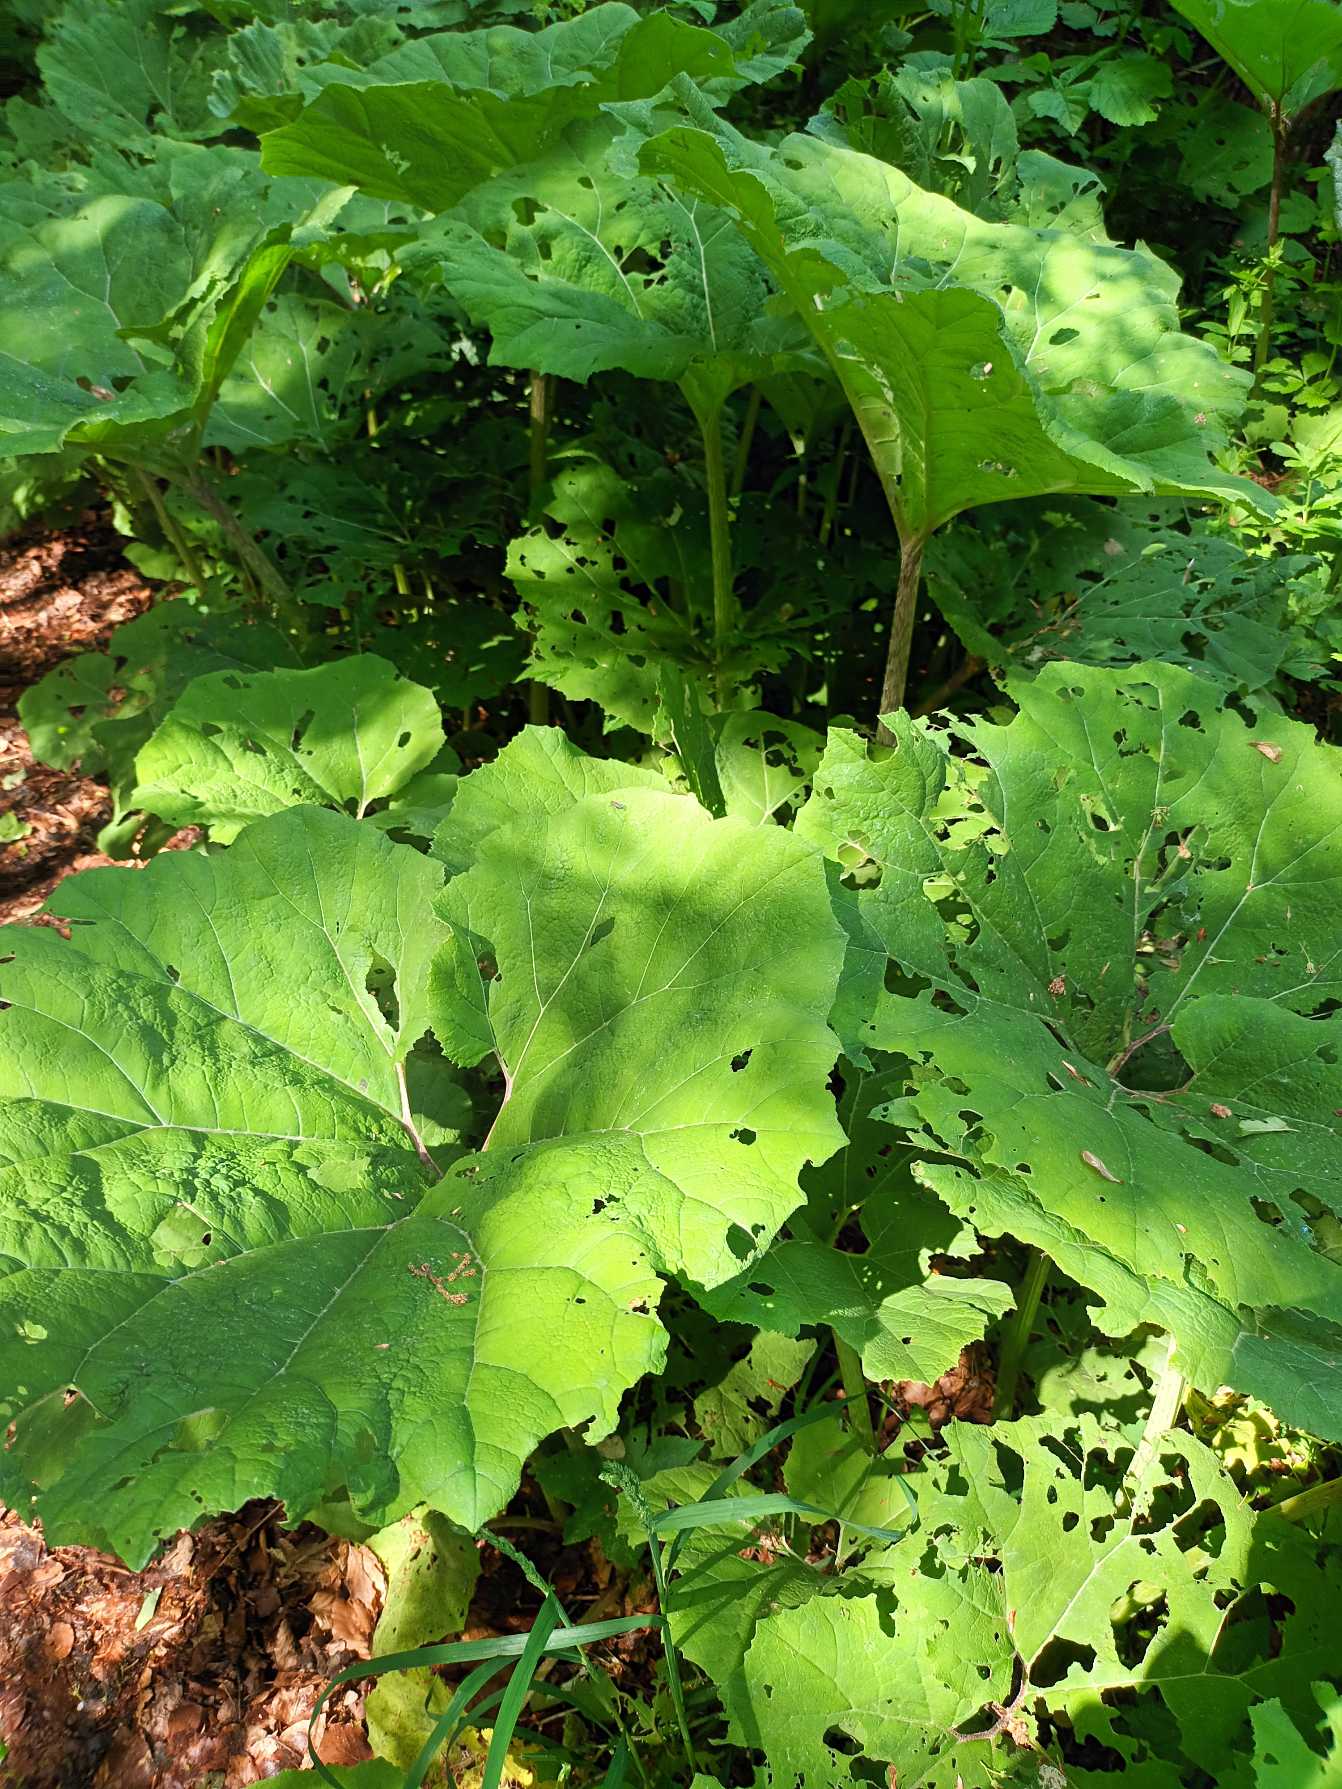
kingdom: Plantae
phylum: Tracheophyta
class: Magnoliopsida
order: Asterales
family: Asteraceae
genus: Petasites
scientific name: Petasites hybridus
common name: Rød hestehov
